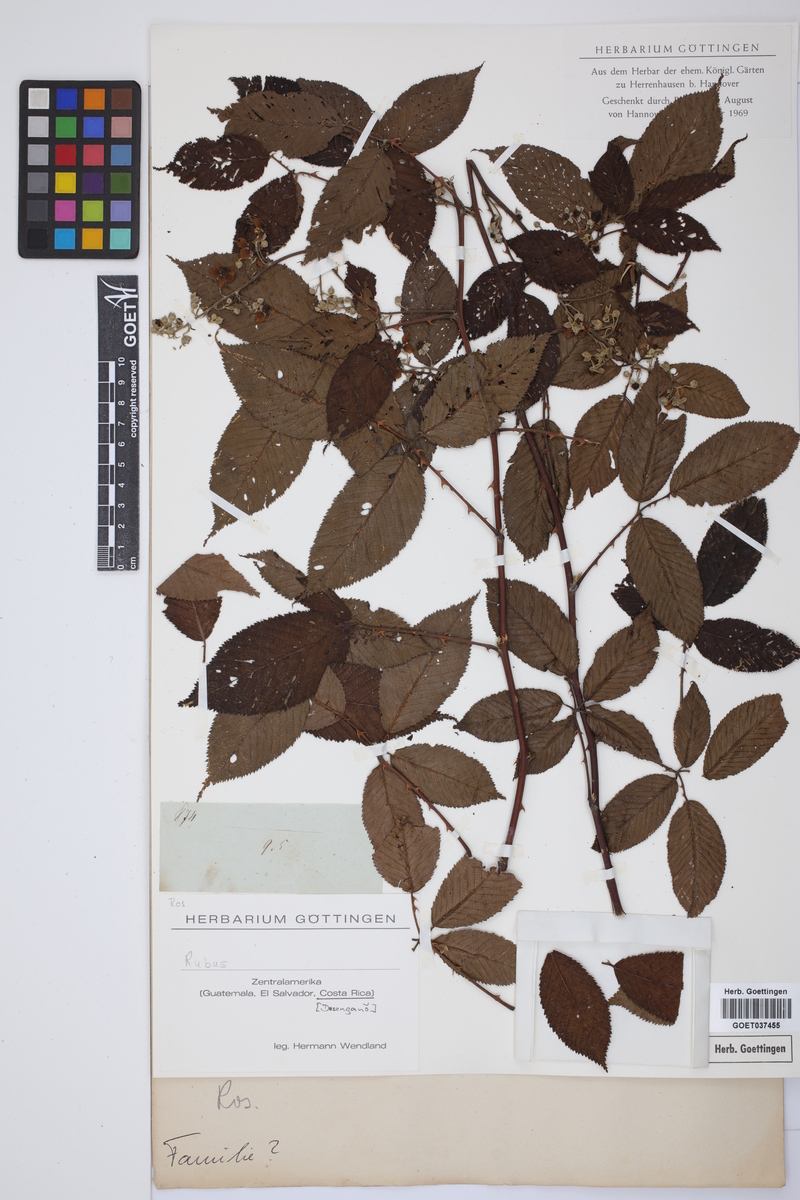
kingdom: Plantae
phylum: Tracheophyta
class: Magnoliopsida
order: Rosales
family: Rosaceae
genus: Rubus
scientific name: Rubus
